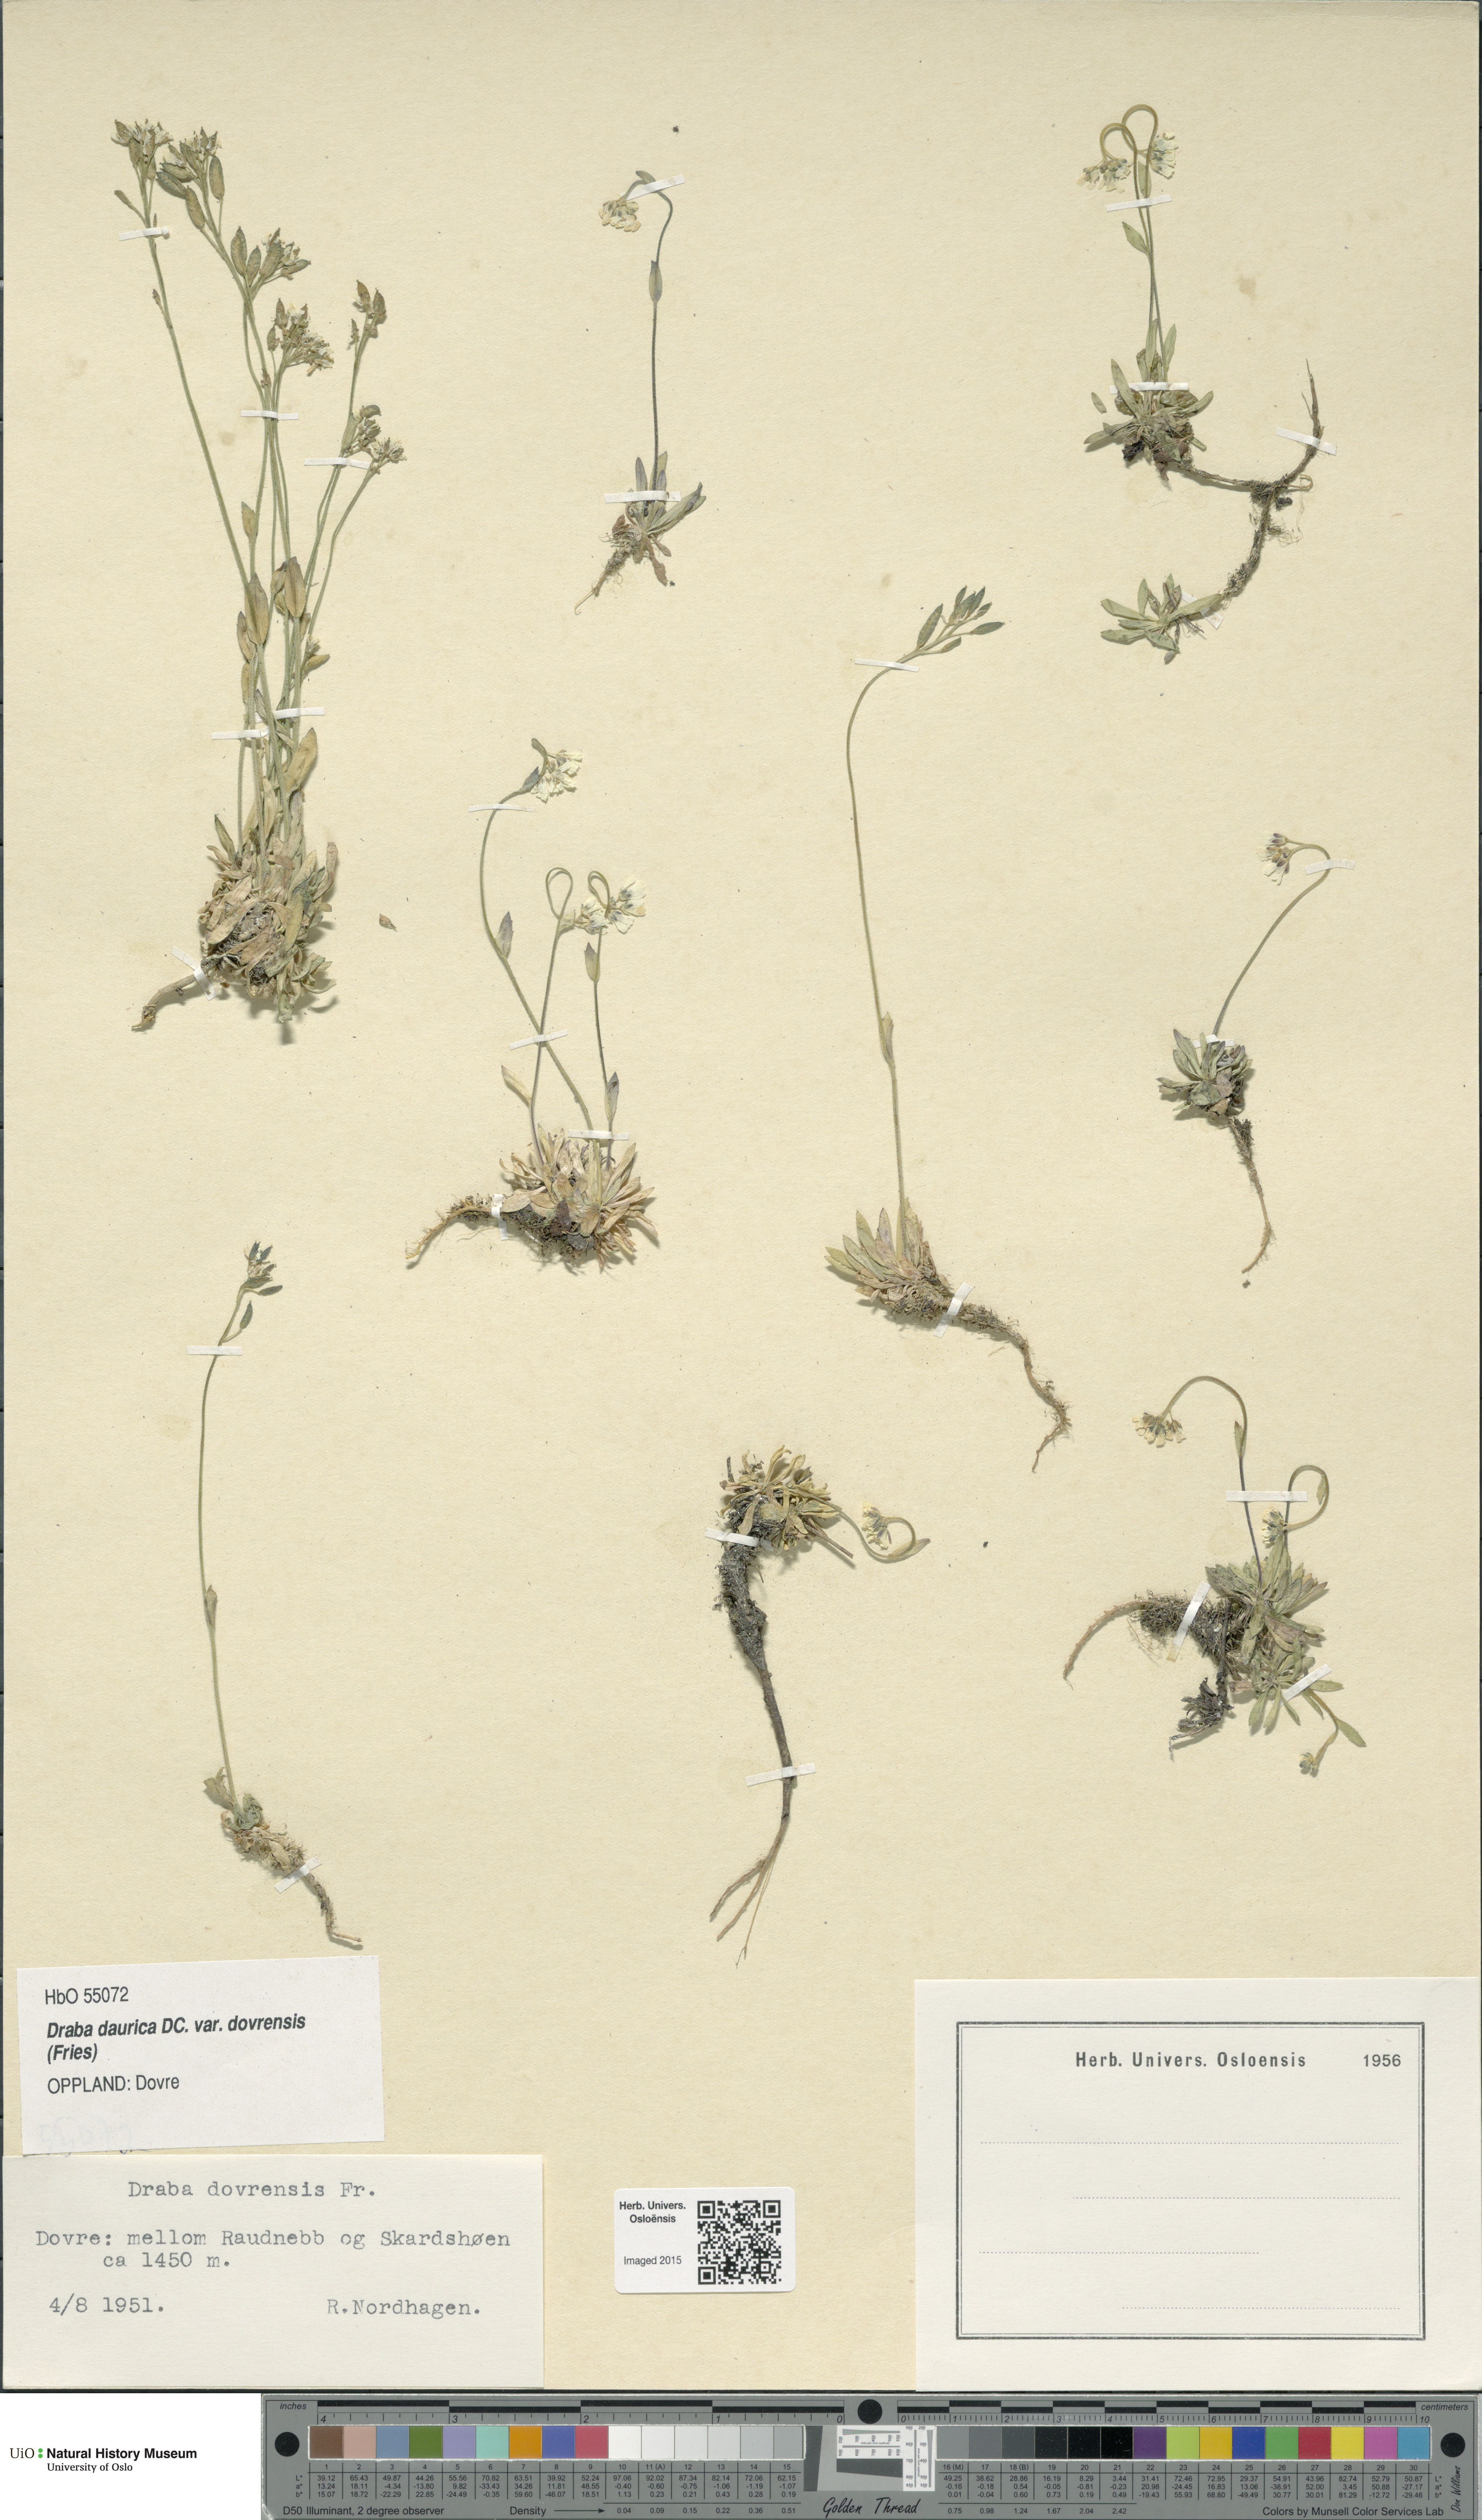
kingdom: Plantae
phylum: Tracheophyta
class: Magnoliopsida
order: Brassicales
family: Brassicaceae
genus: Draba
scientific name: Draba glabella
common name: Glaucous draba
